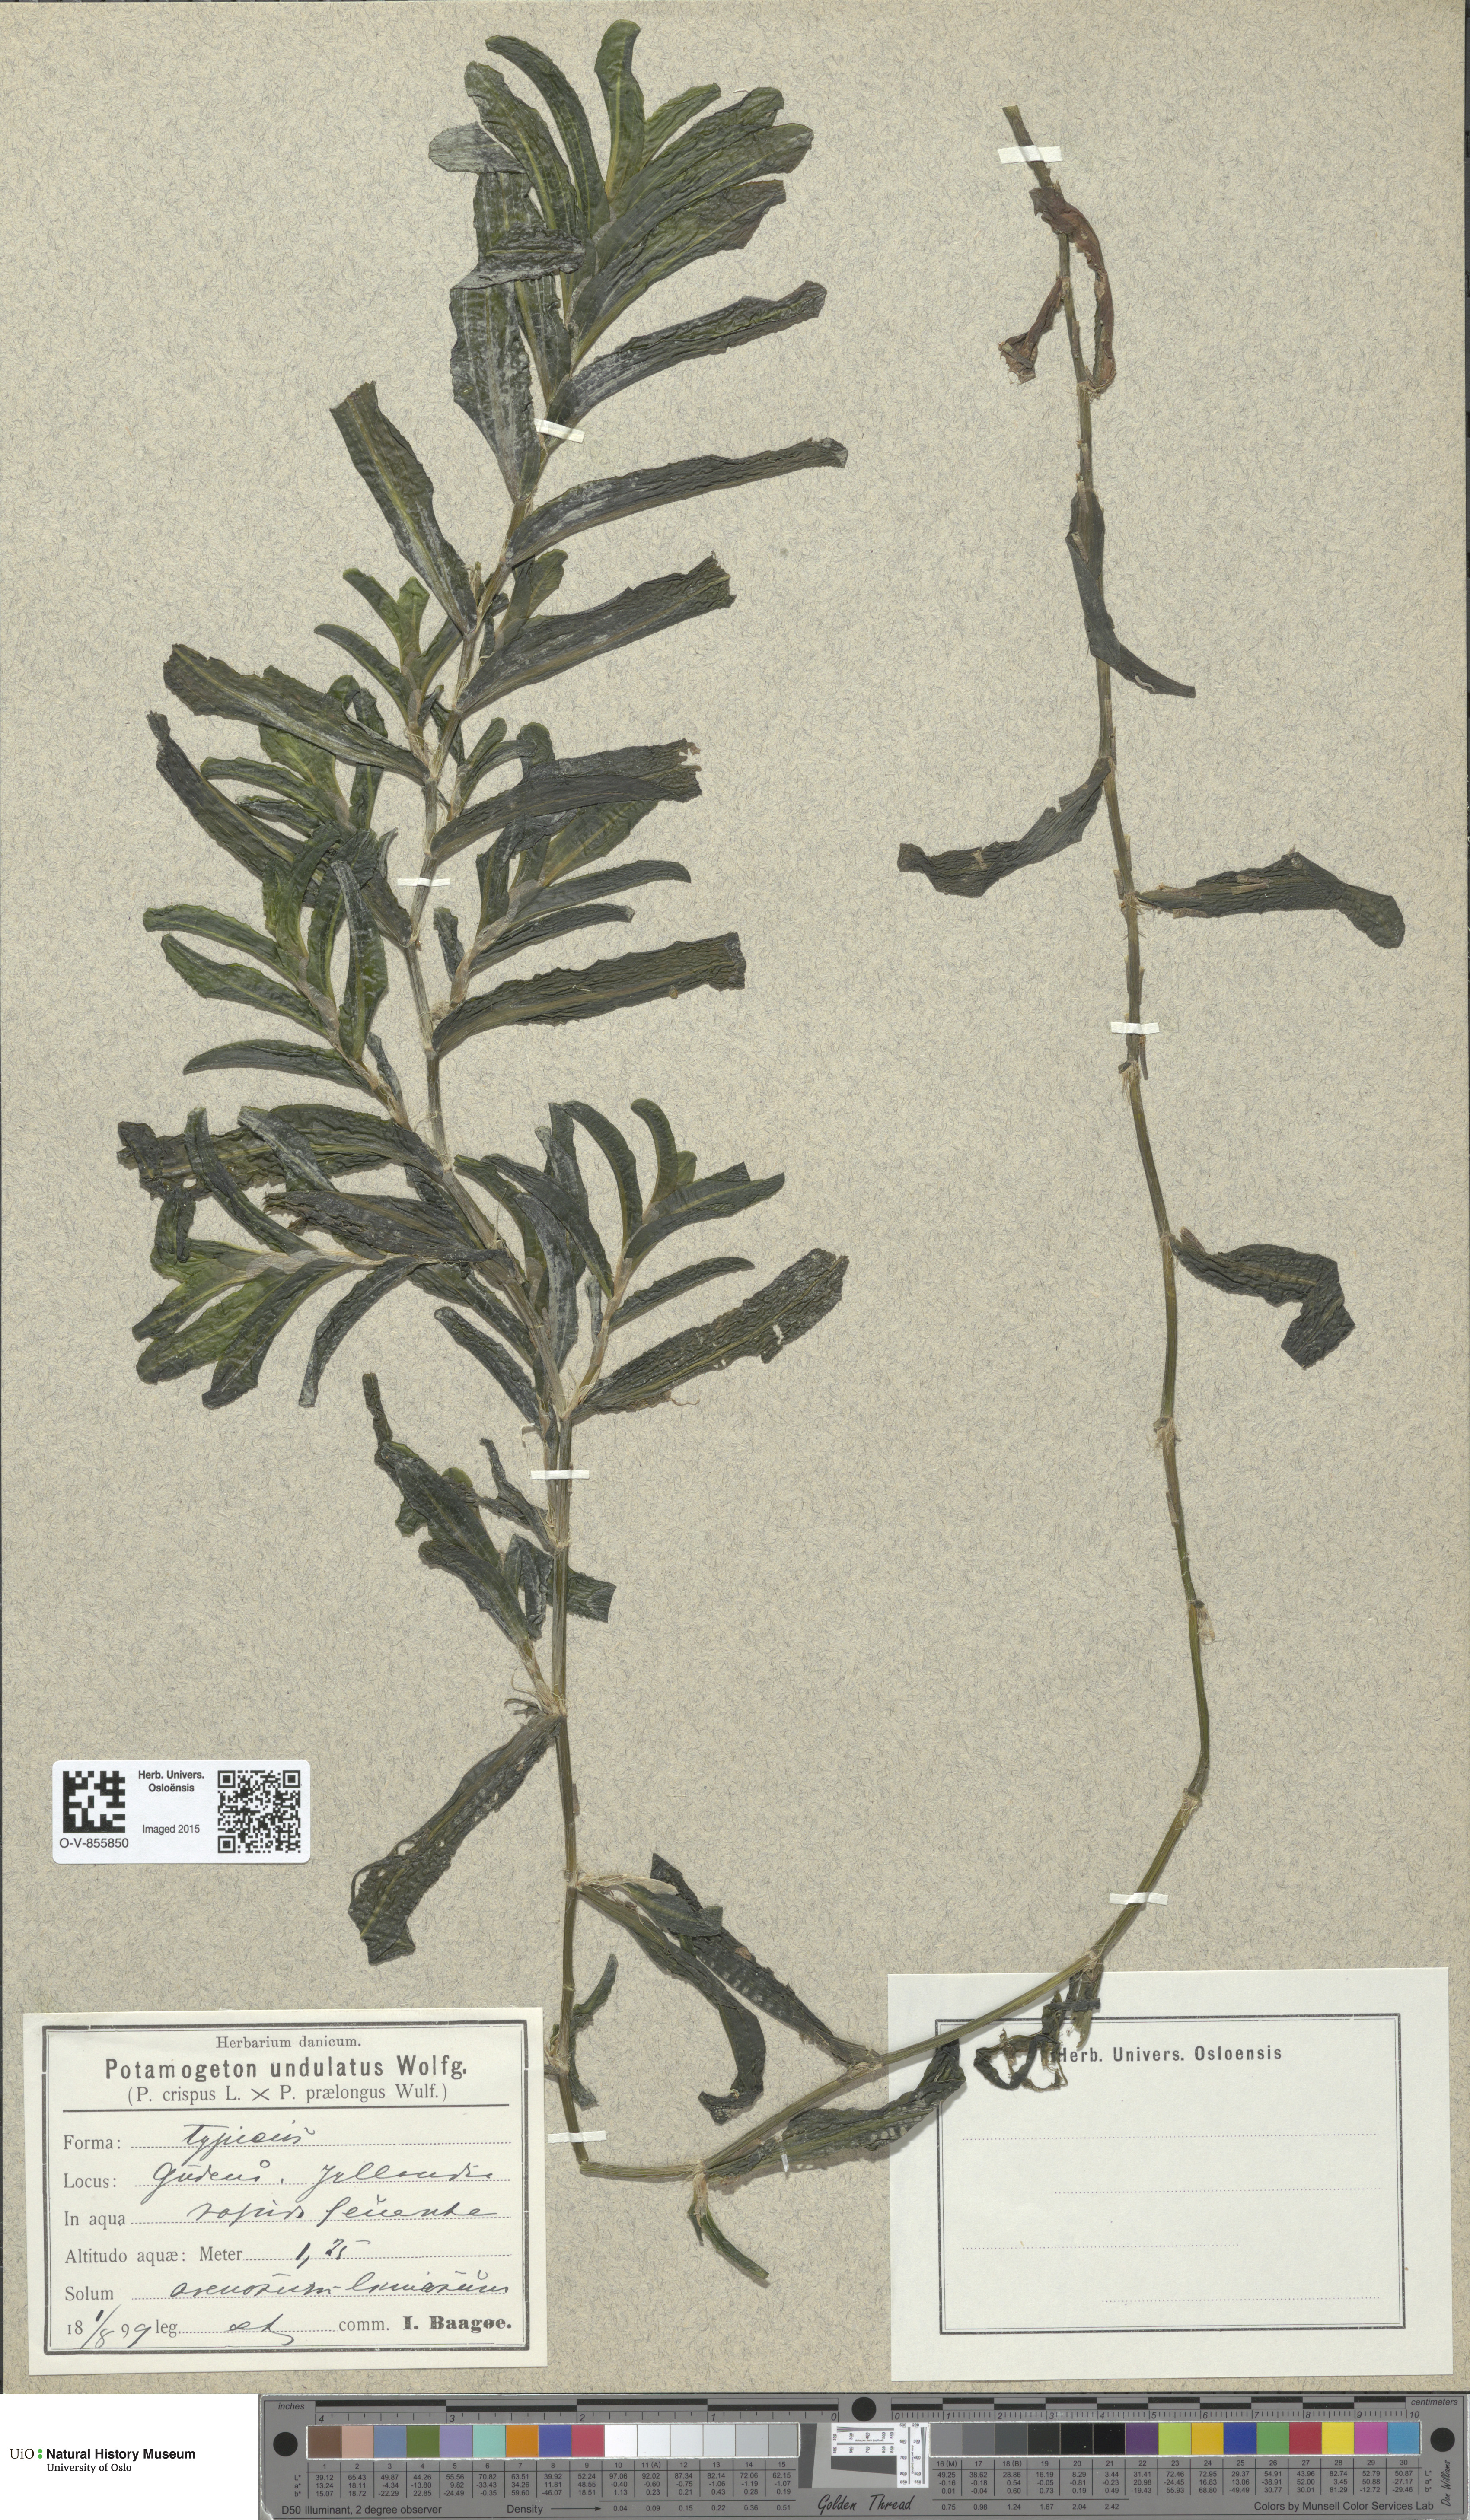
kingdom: Plantae
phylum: Tracheophyta
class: Liliopsida
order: Alismatales
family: Potamogetonaceae
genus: Potamogeton
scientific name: Potamogeton
